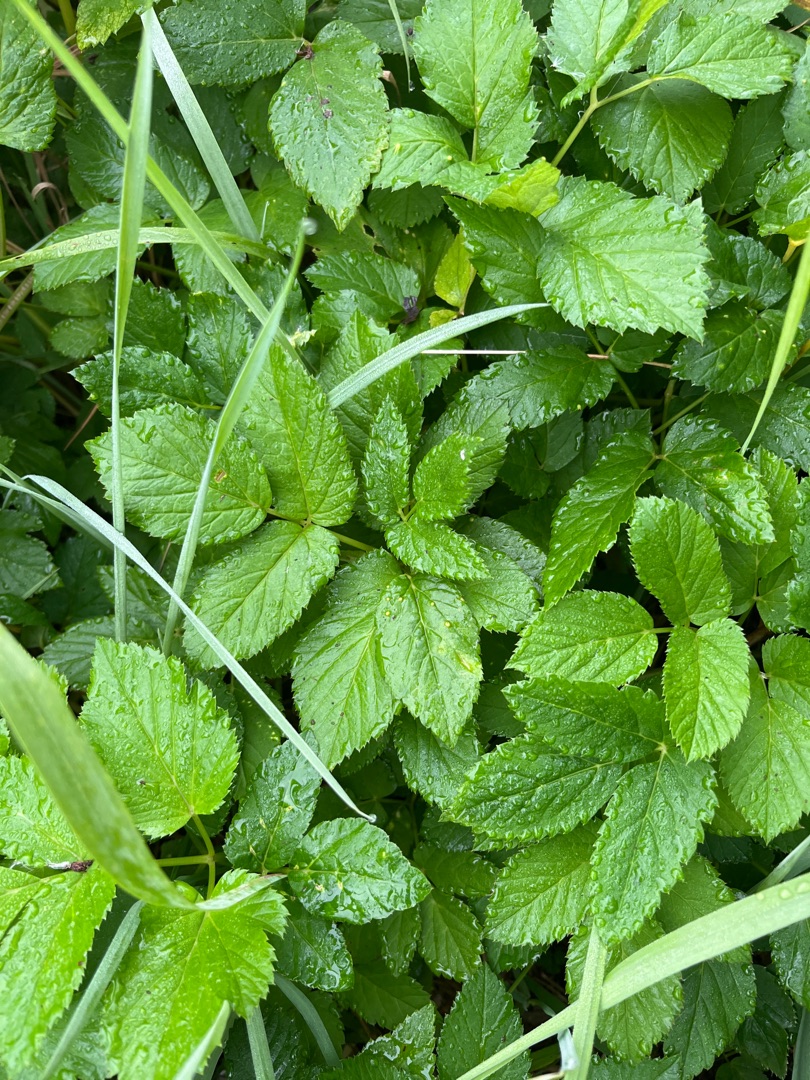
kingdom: Plantae
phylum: Tracheophyta
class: Magnoliopsida
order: Apiales
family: Apiaceae
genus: Aegopodium
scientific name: Aegopodium podagraria
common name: Skvalderkål
